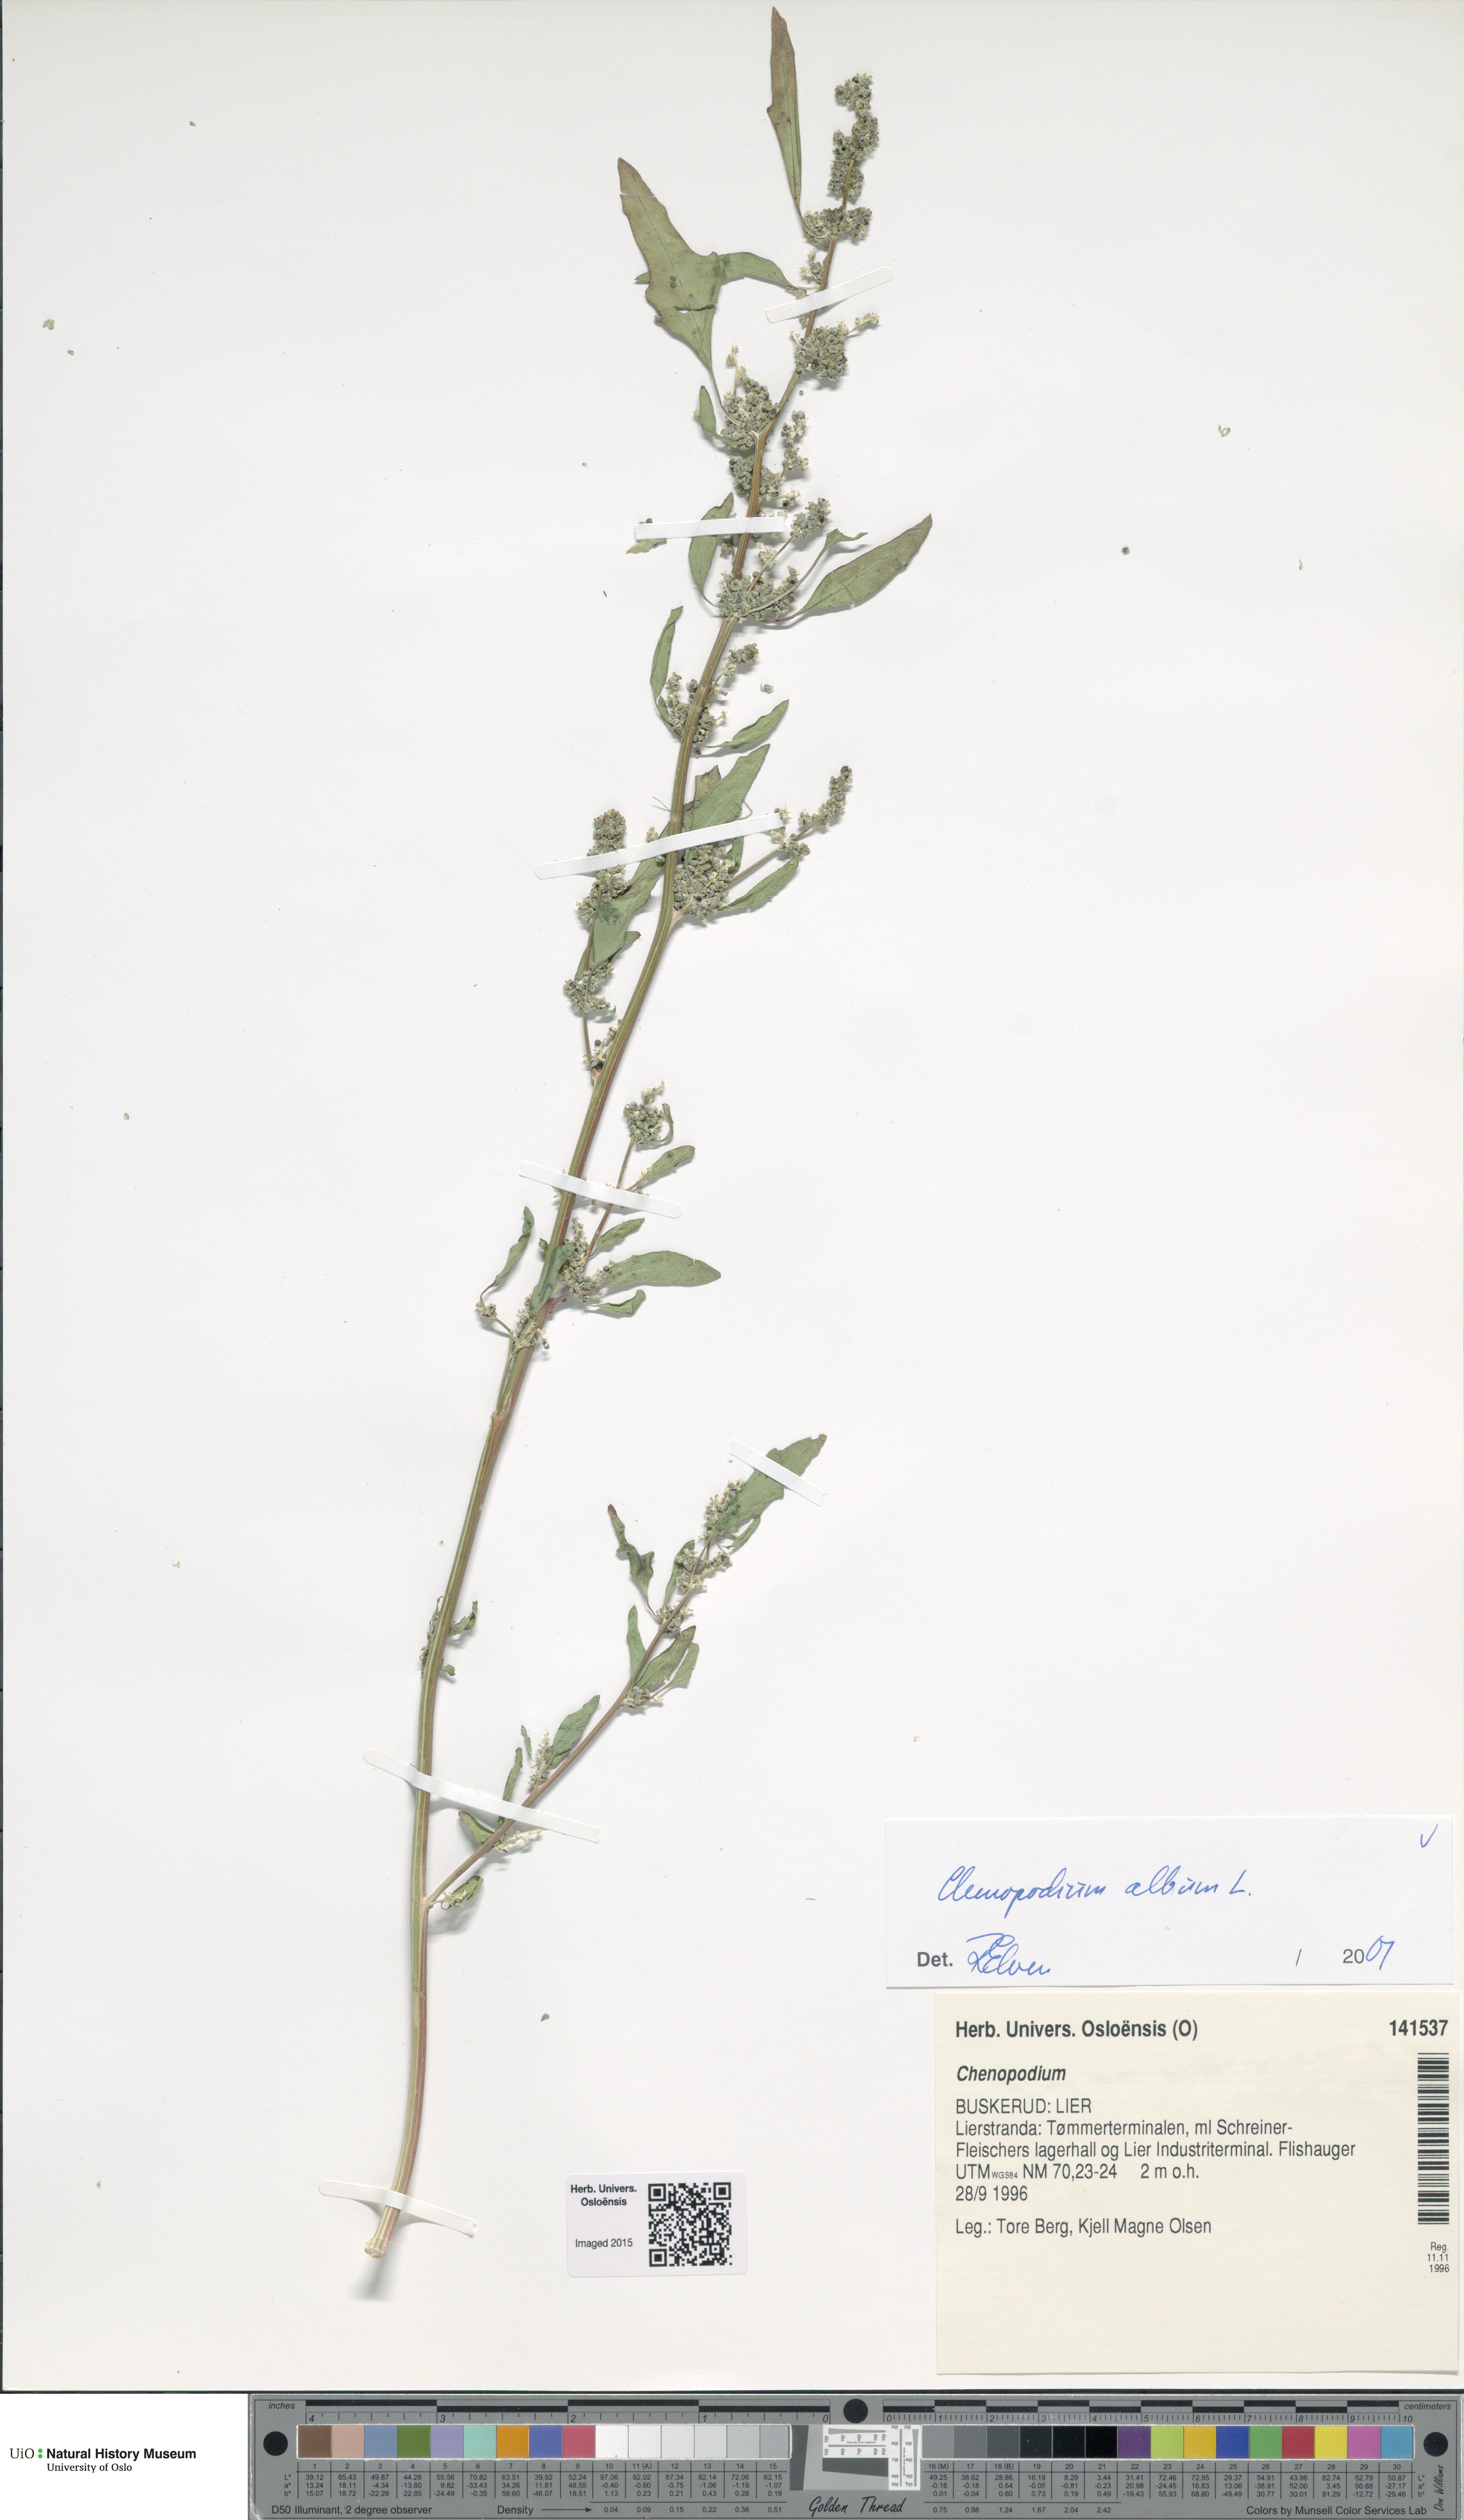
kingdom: Plantae
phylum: Tracheophyta
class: Magnoliopsida
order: Caryophyllales
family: Amaranthaceae
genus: Chenopodium
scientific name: Chenopodium album
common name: Fat-hen
